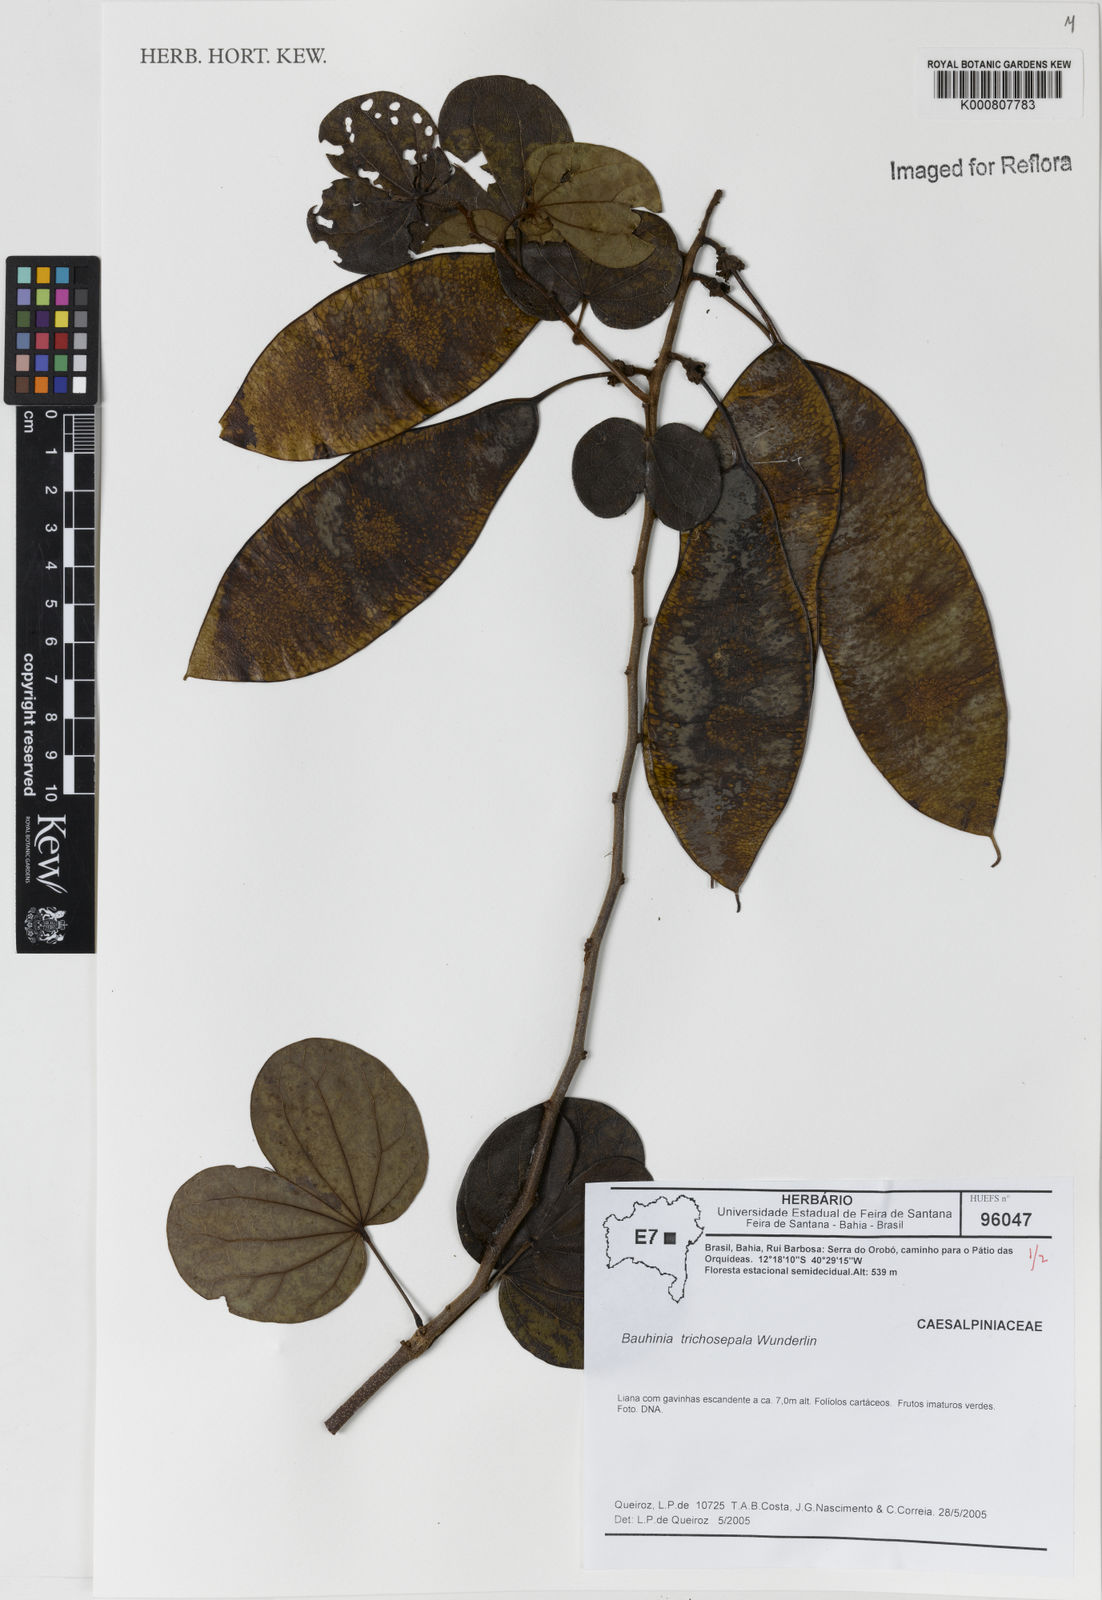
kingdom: Plantae
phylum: Tracheophyta
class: Magnoliopsida
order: Fabales
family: Fabaceae
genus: Schnella
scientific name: Schnella trichosepala
